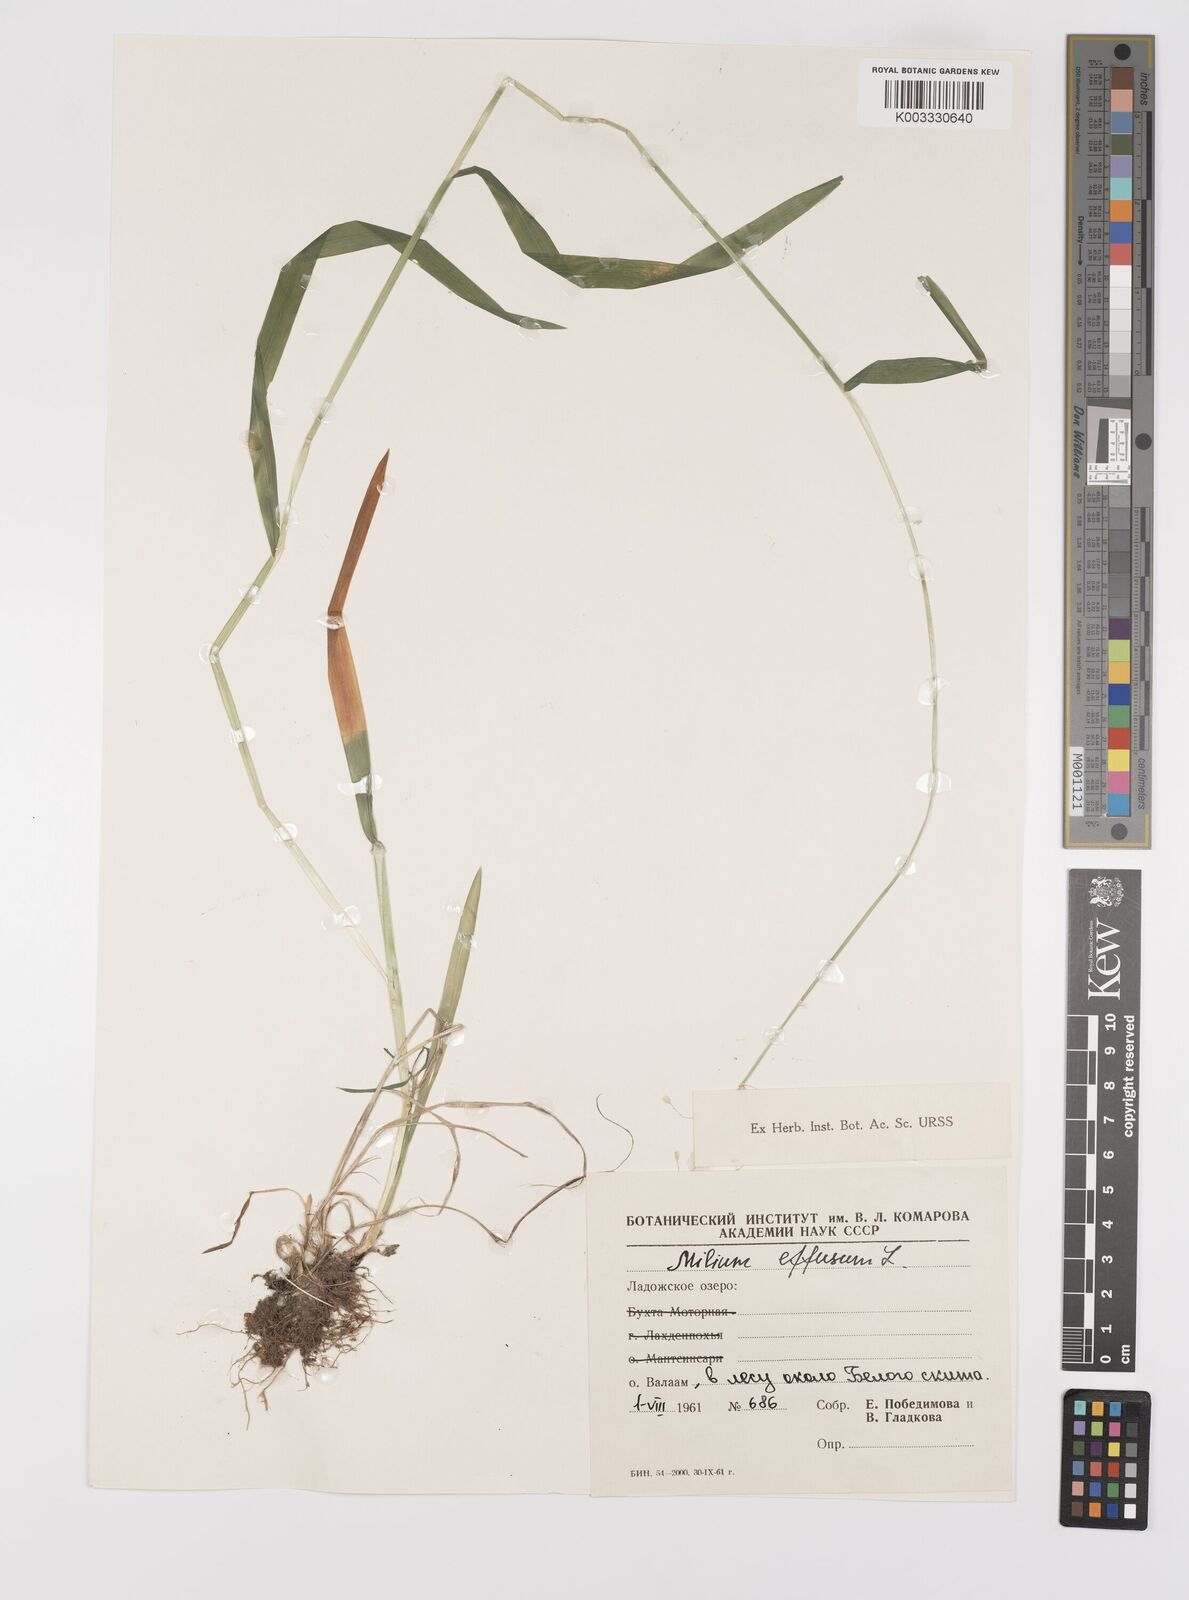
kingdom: Plantae
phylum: Tracheophyta
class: Liliopsida
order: Poales
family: Poaceae
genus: Milium
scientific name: Milium effusum
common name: Wood millet
